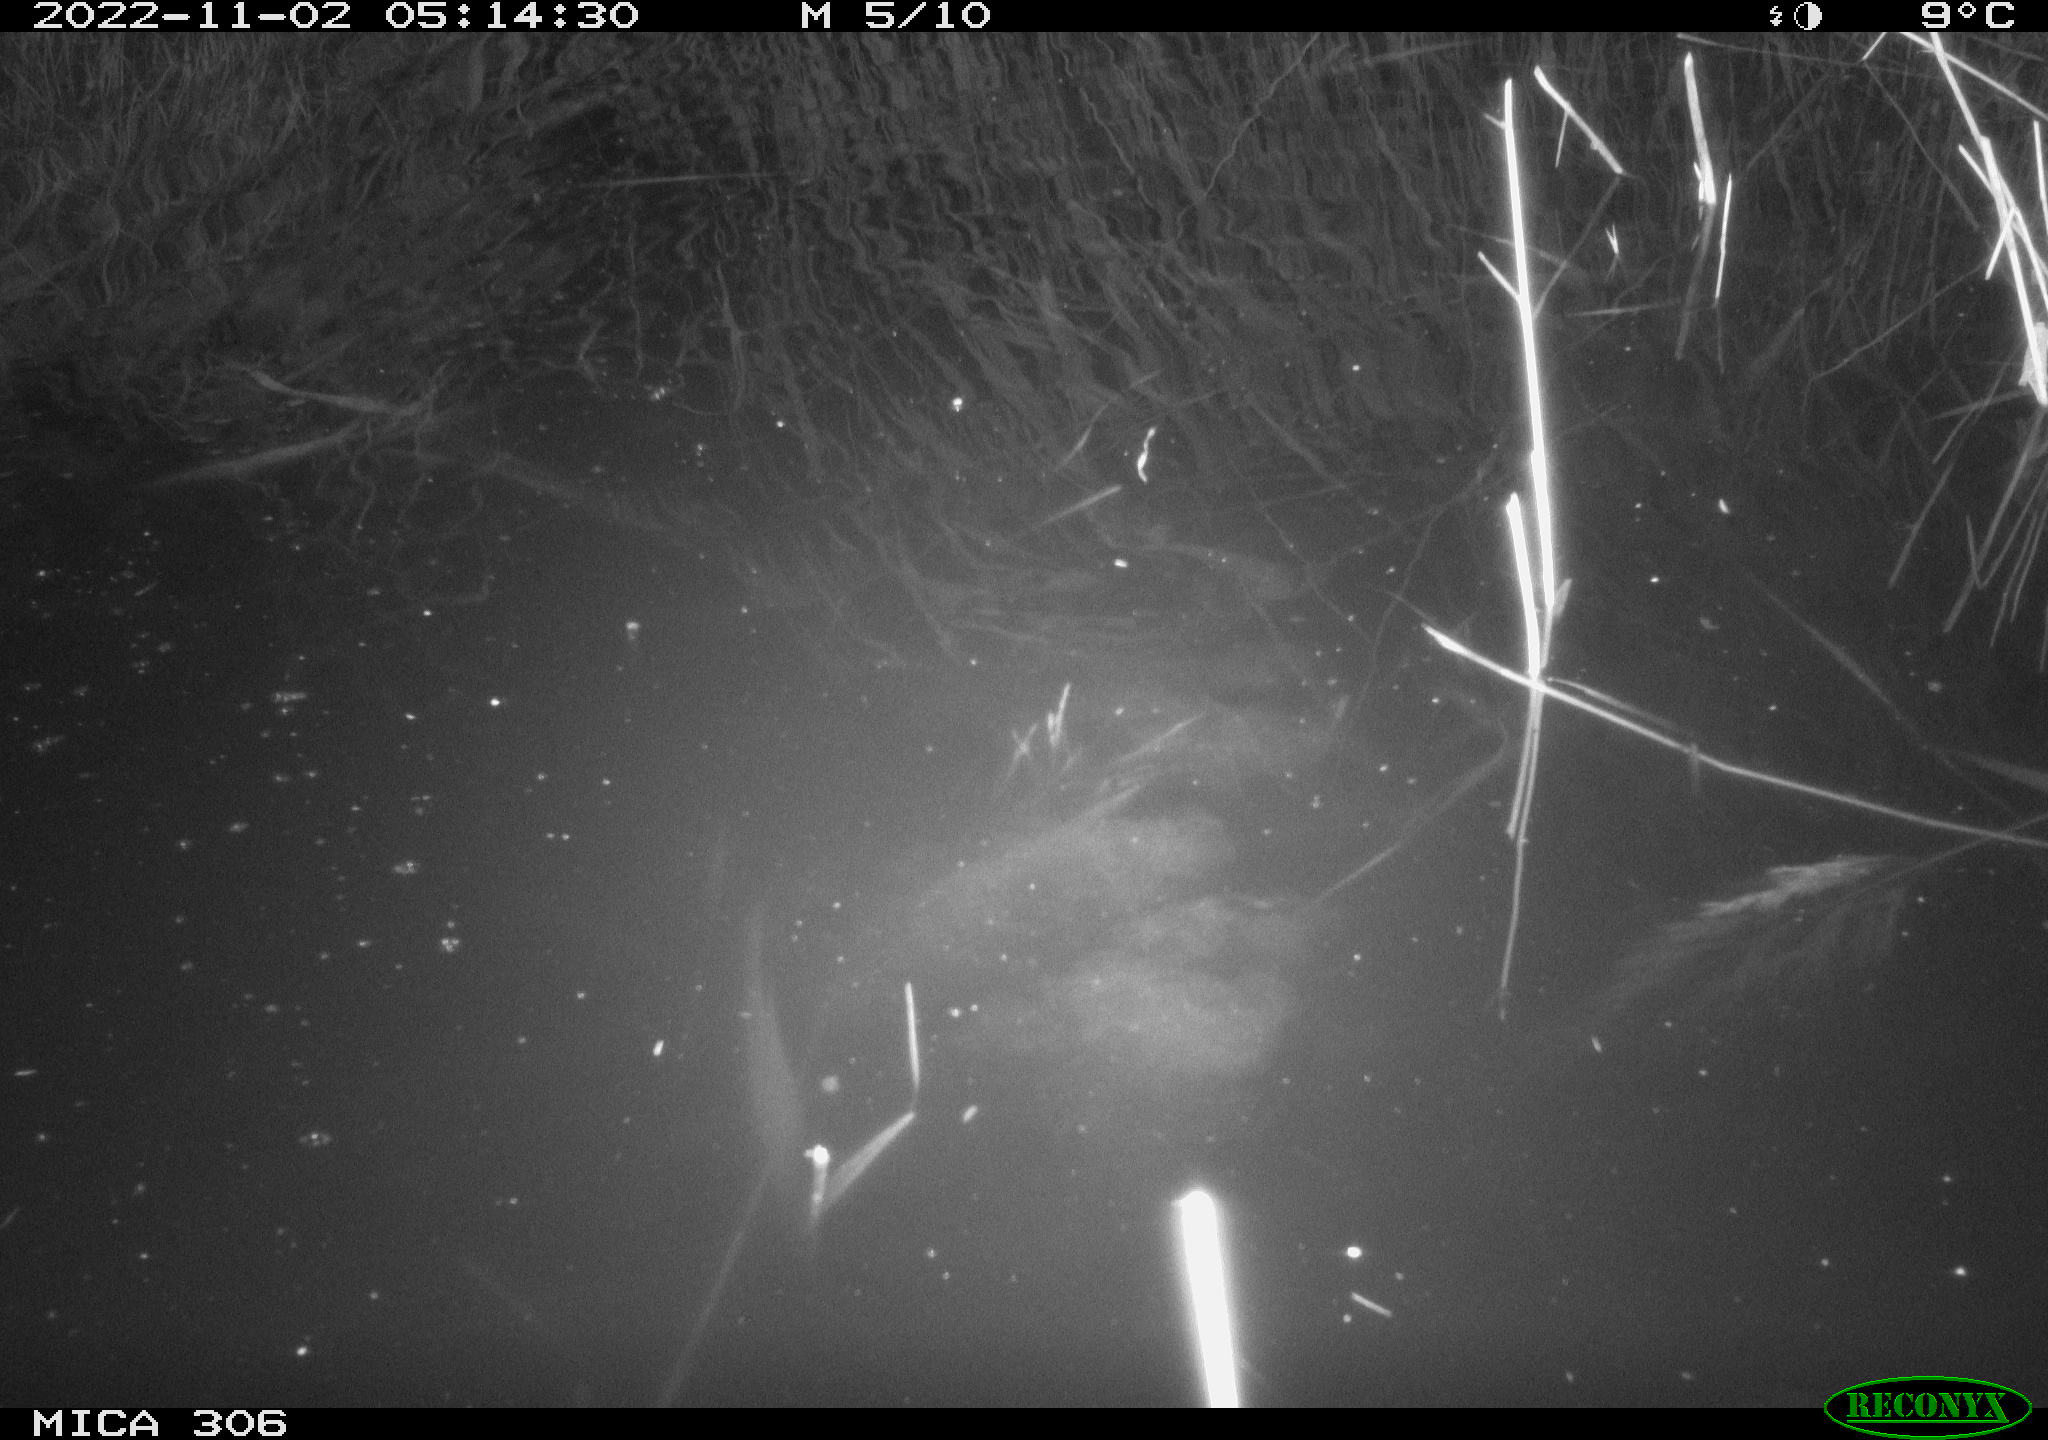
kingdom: Animalia
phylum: Chordata
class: Mammalia
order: Rodentia
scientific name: Rodentia
